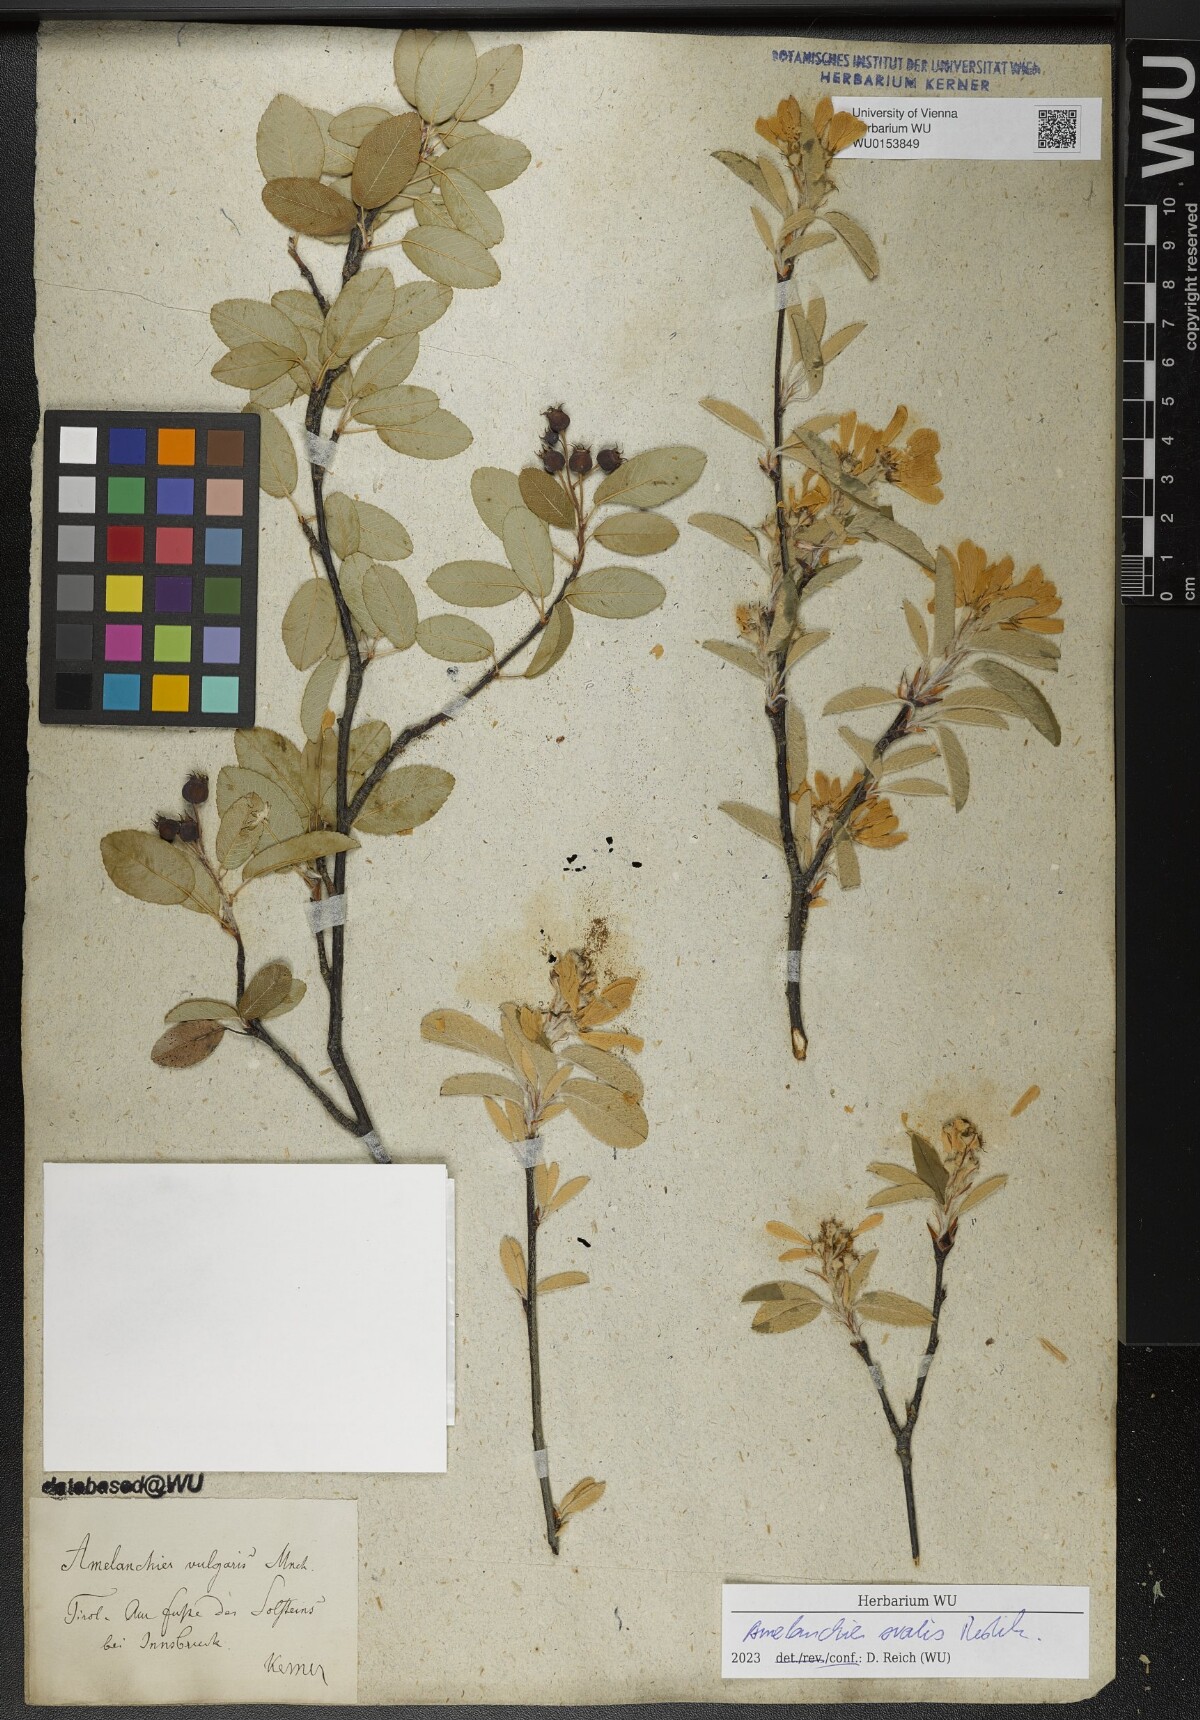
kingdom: Plantae
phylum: Tracheophyta
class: Magnoliopsida
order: Rosales
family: Rosaceae
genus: Amelanchier
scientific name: Amelanchier ovalis
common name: Serviceberry
